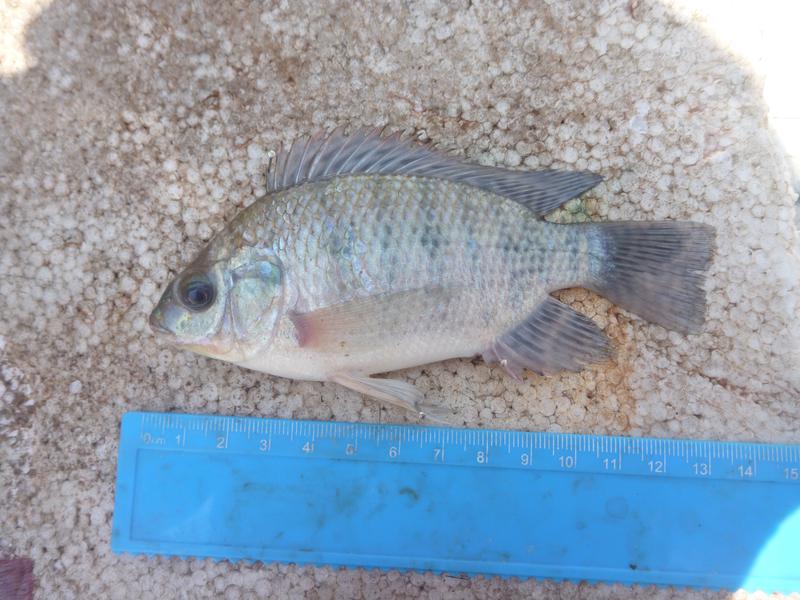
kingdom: Animalia
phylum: Chordata
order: Perciformes
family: Cichlidae
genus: Oreochromis
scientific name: Oreochromis upembae
